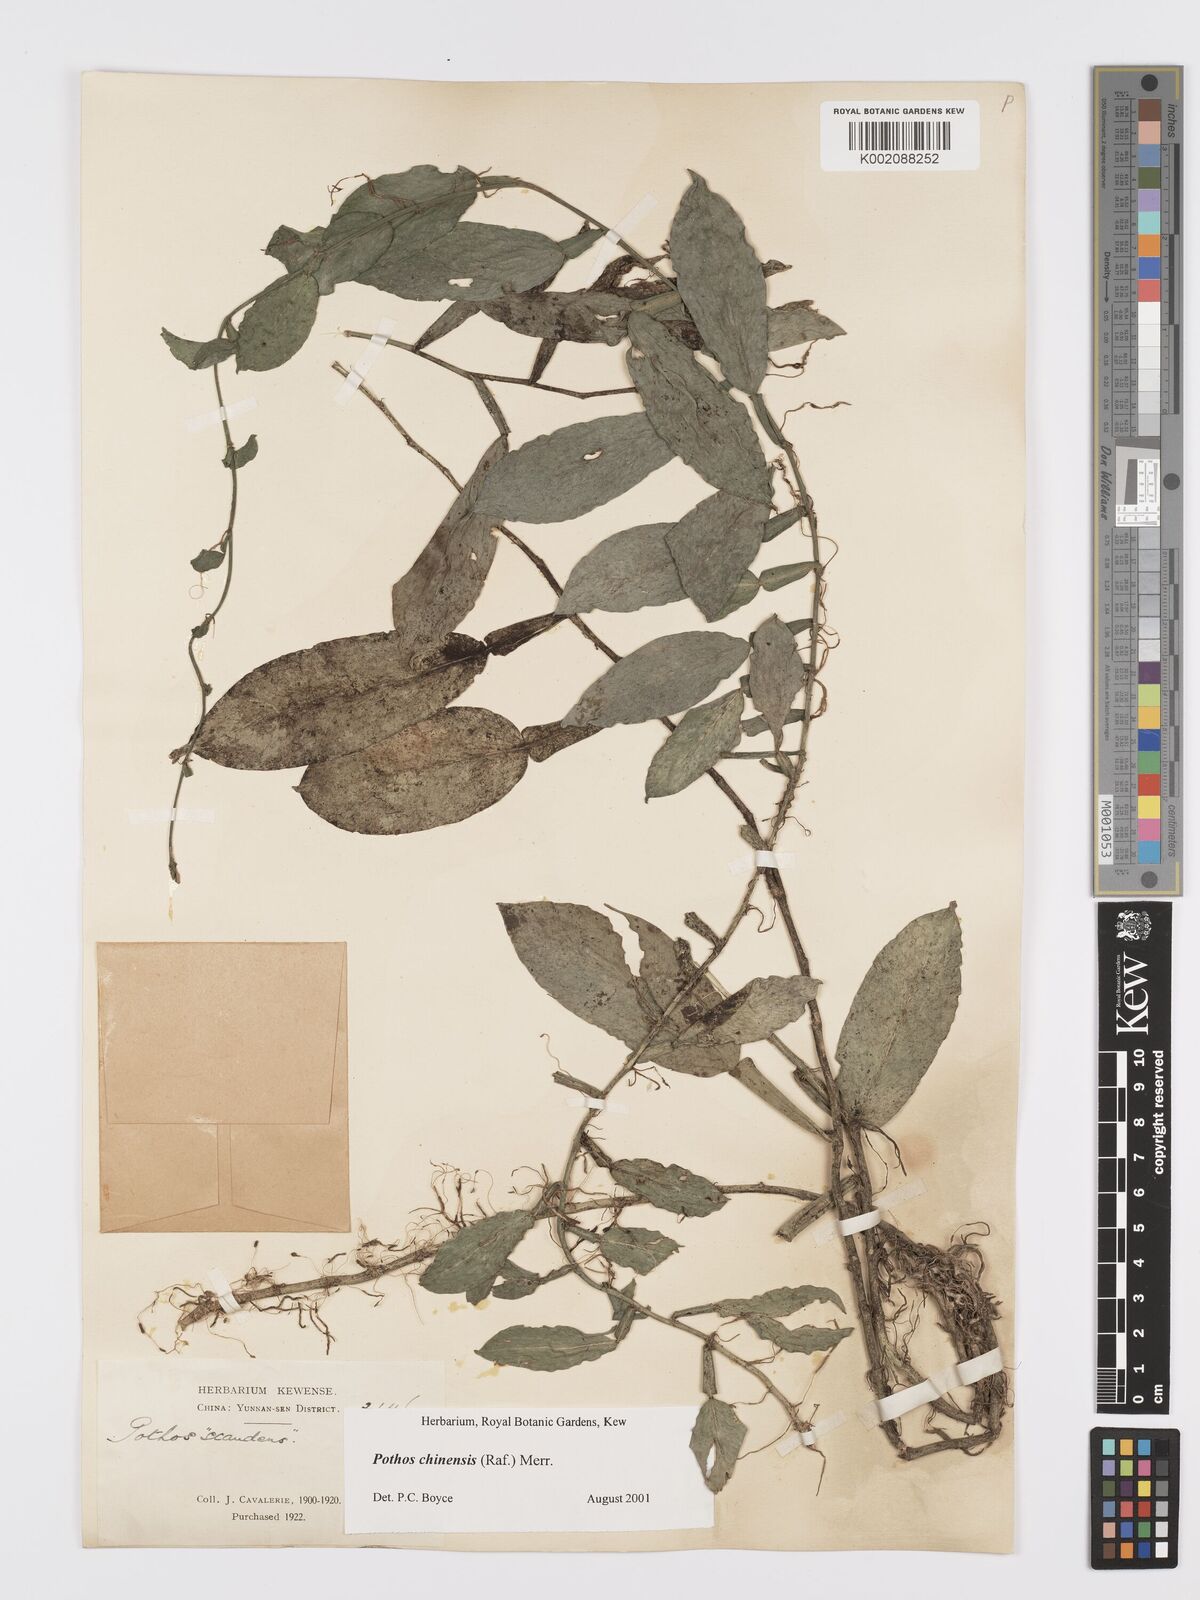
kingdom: Plantae
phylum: Tracheophyta
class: Liliopsida
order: Alismatales
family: Araceae
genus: Pothos
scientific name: Pothos chinensis
